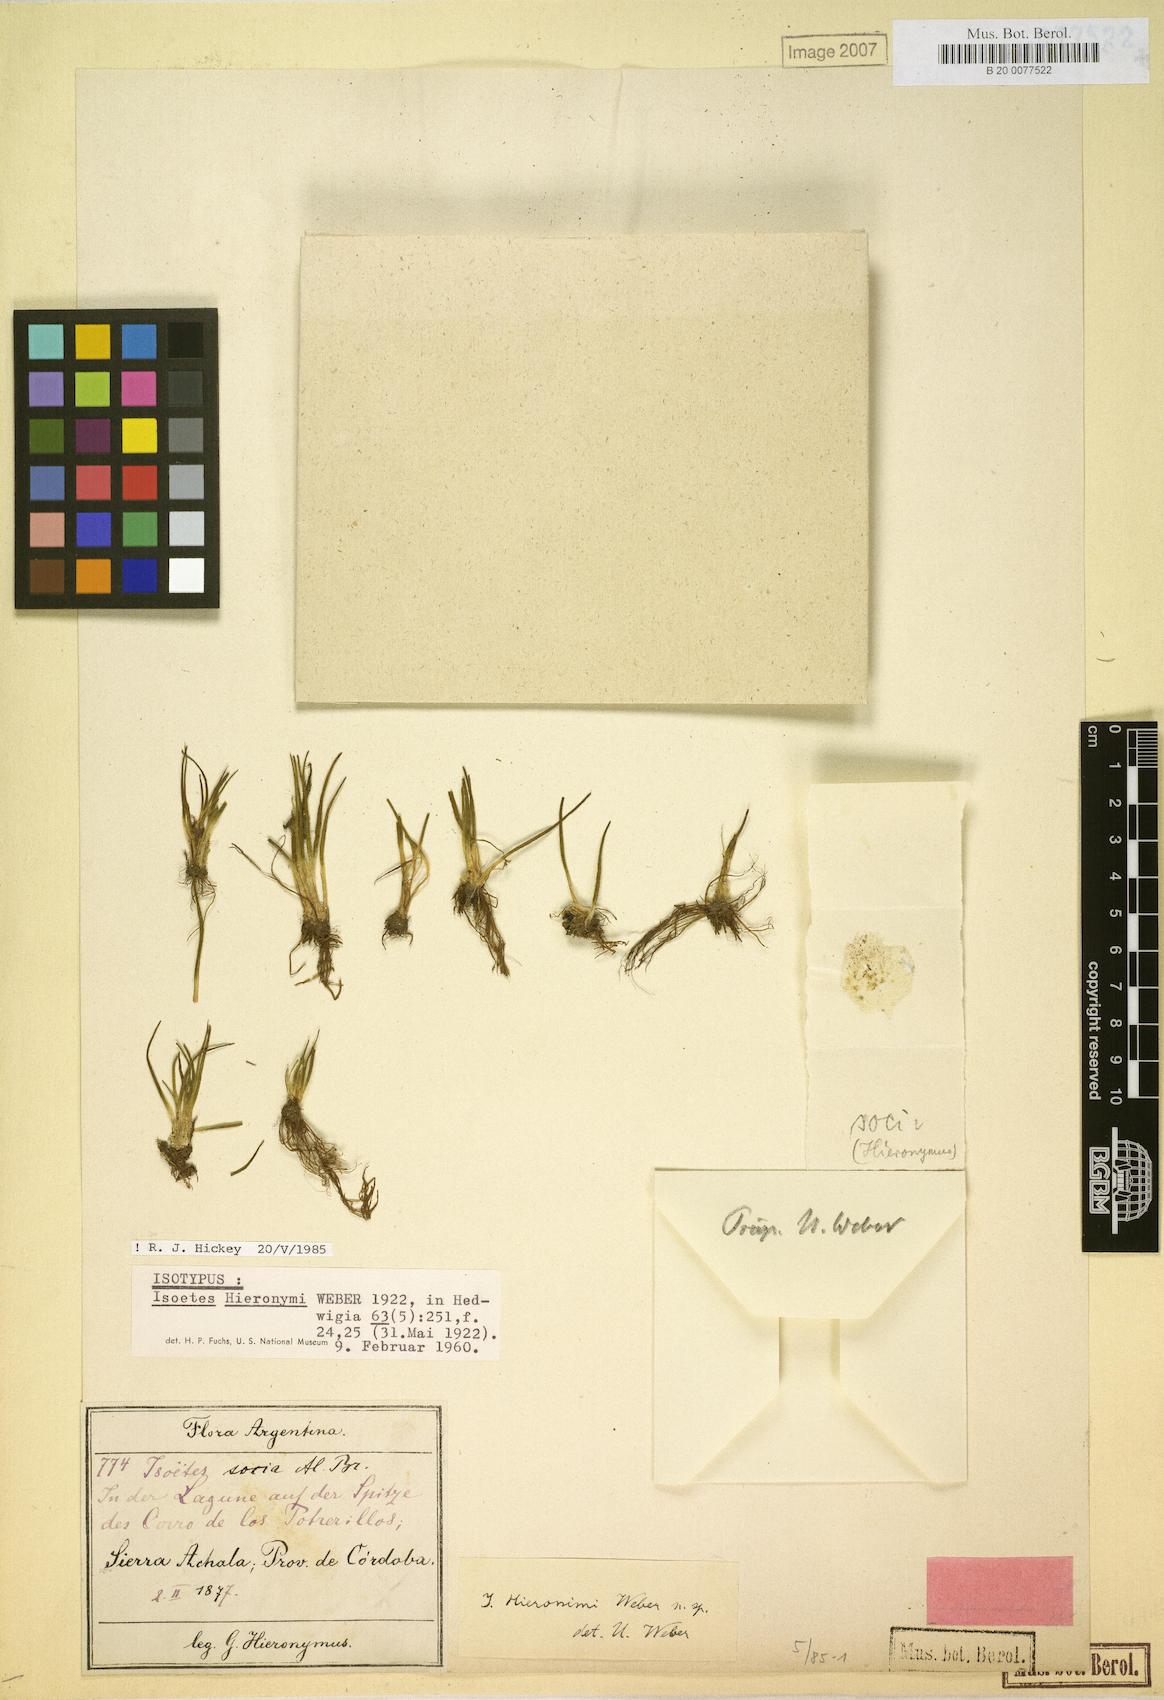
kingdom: Plantae
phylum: Tracheophyta
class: Lycopodiopsida
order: Isoetales
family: Isoetaceae
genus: Isoetes
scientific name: Isoetes hieronymi
